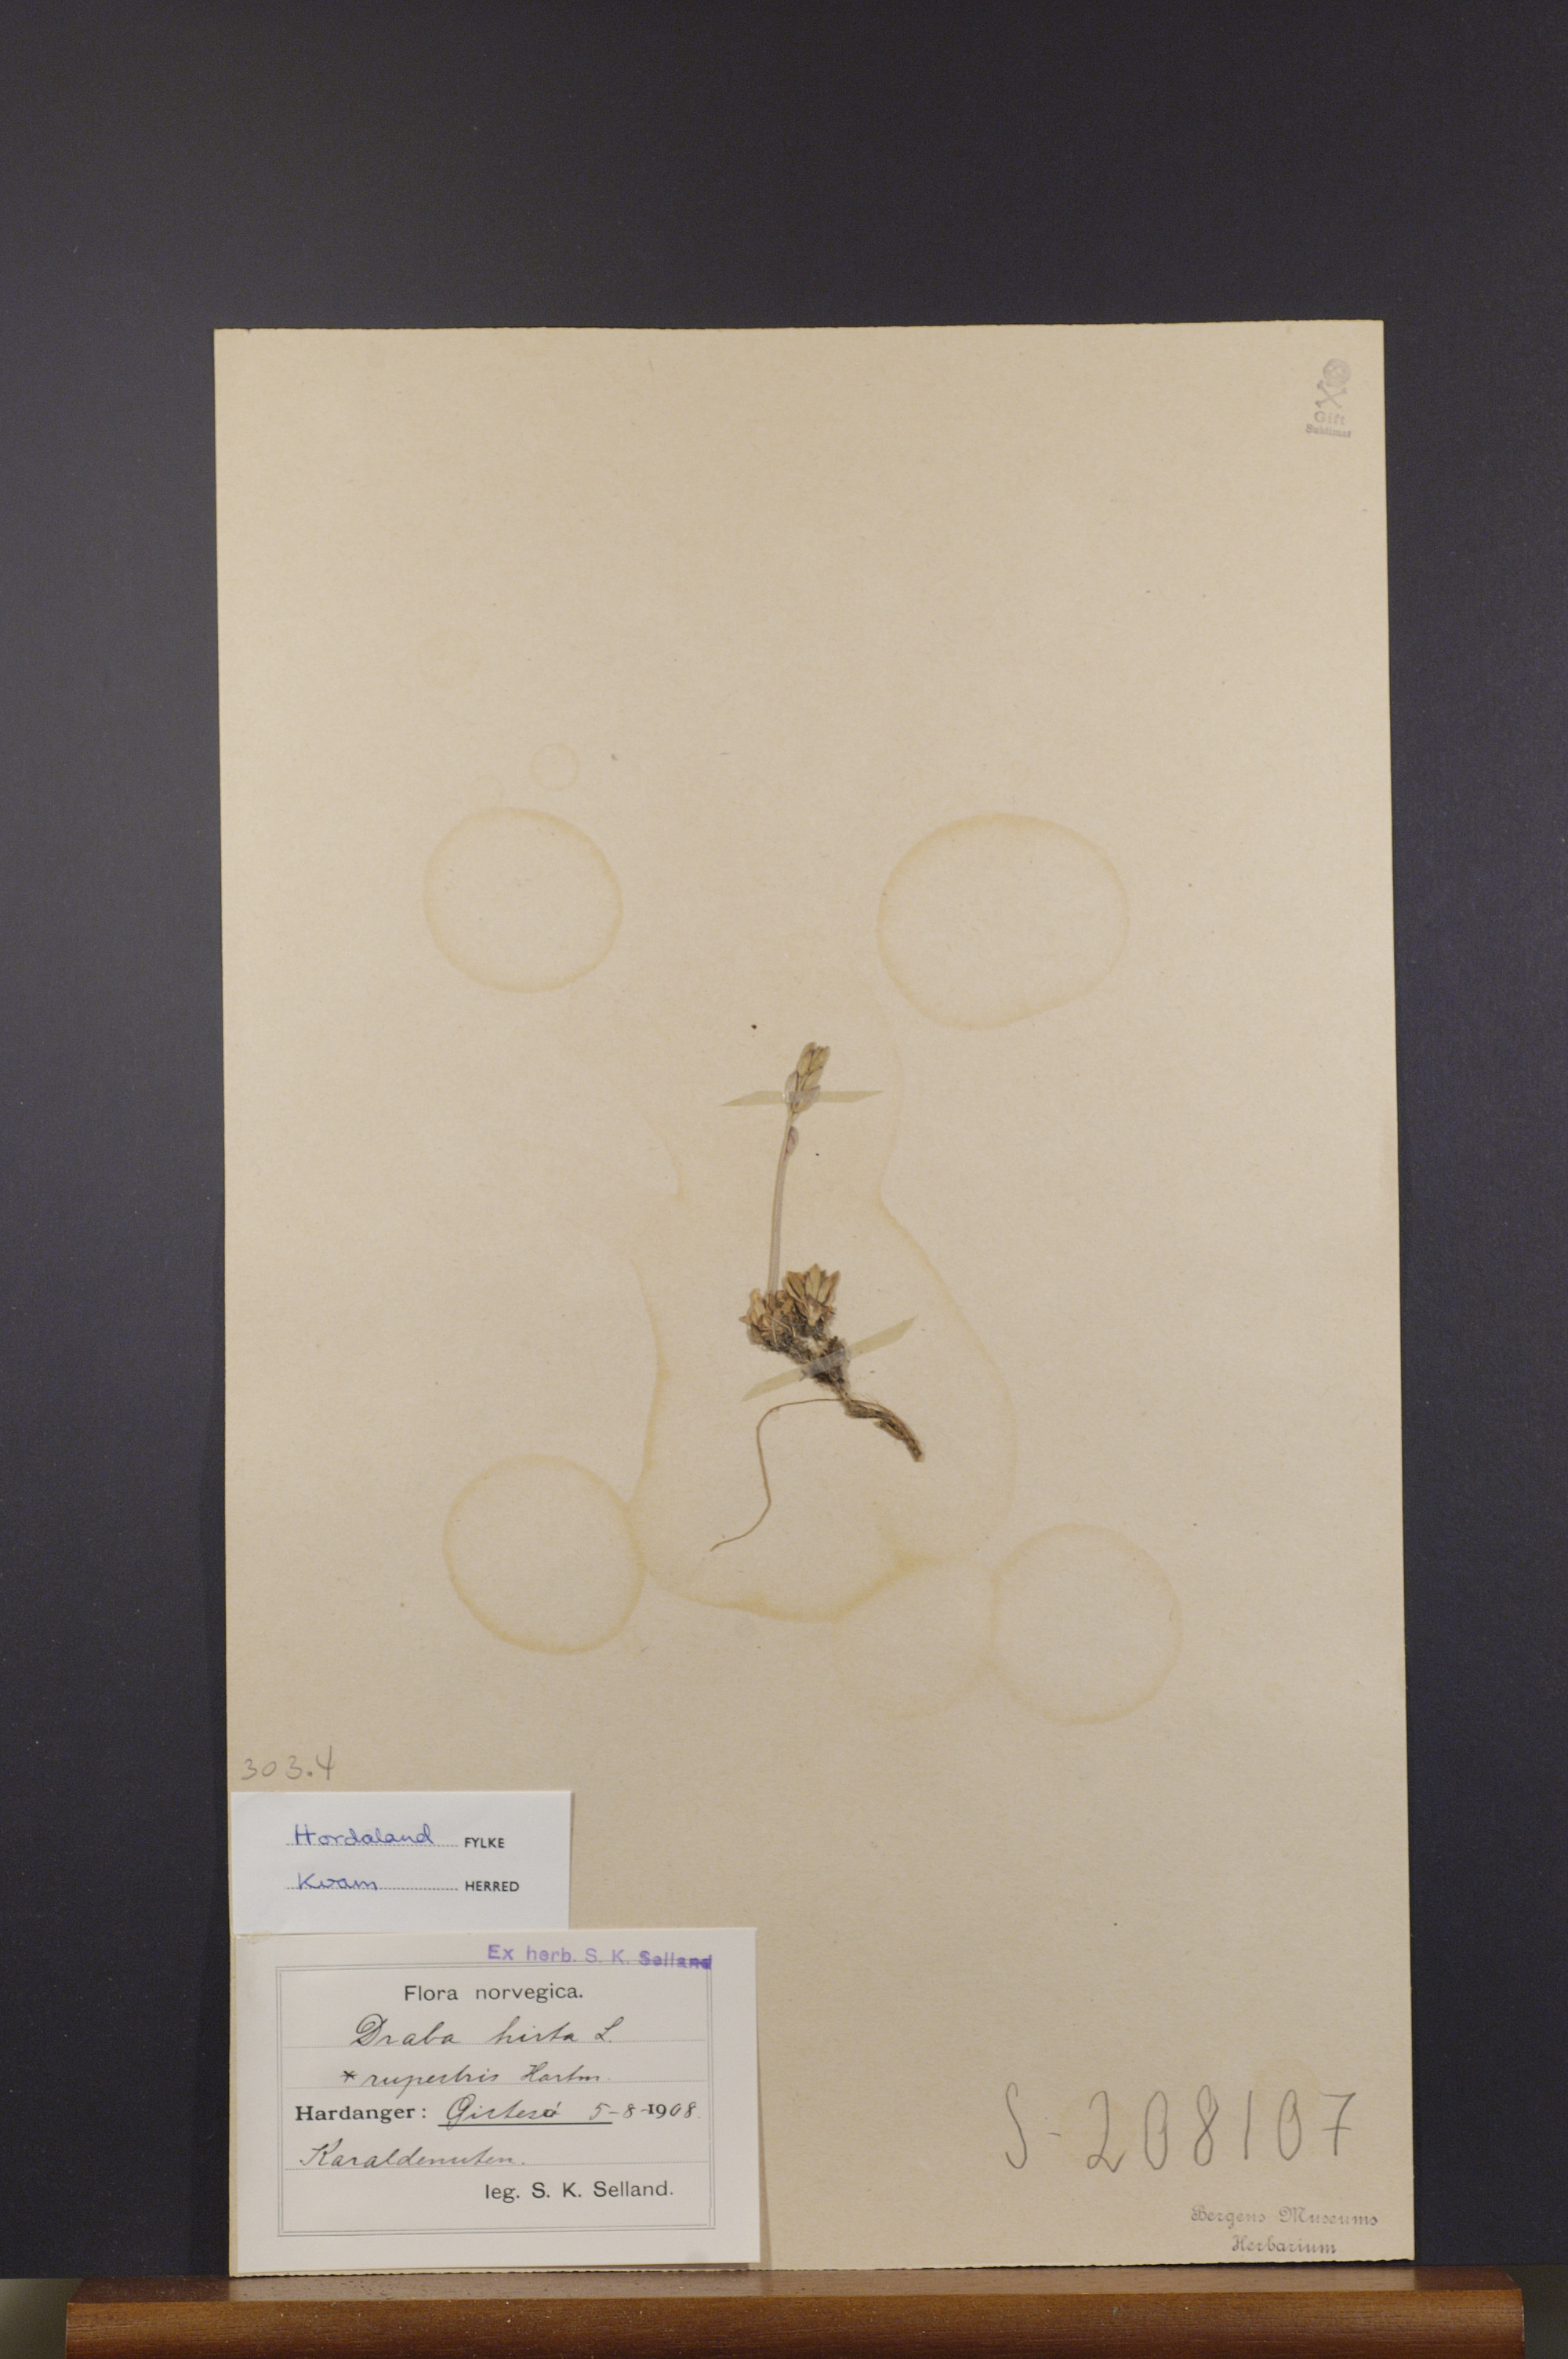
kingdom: Plantae
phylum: Tracheophyta
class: Magnoliopsida
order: Brassicales
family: Brassicaceae
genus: Draba
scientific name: Draba norvegica
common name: Rock whitlowgrass
